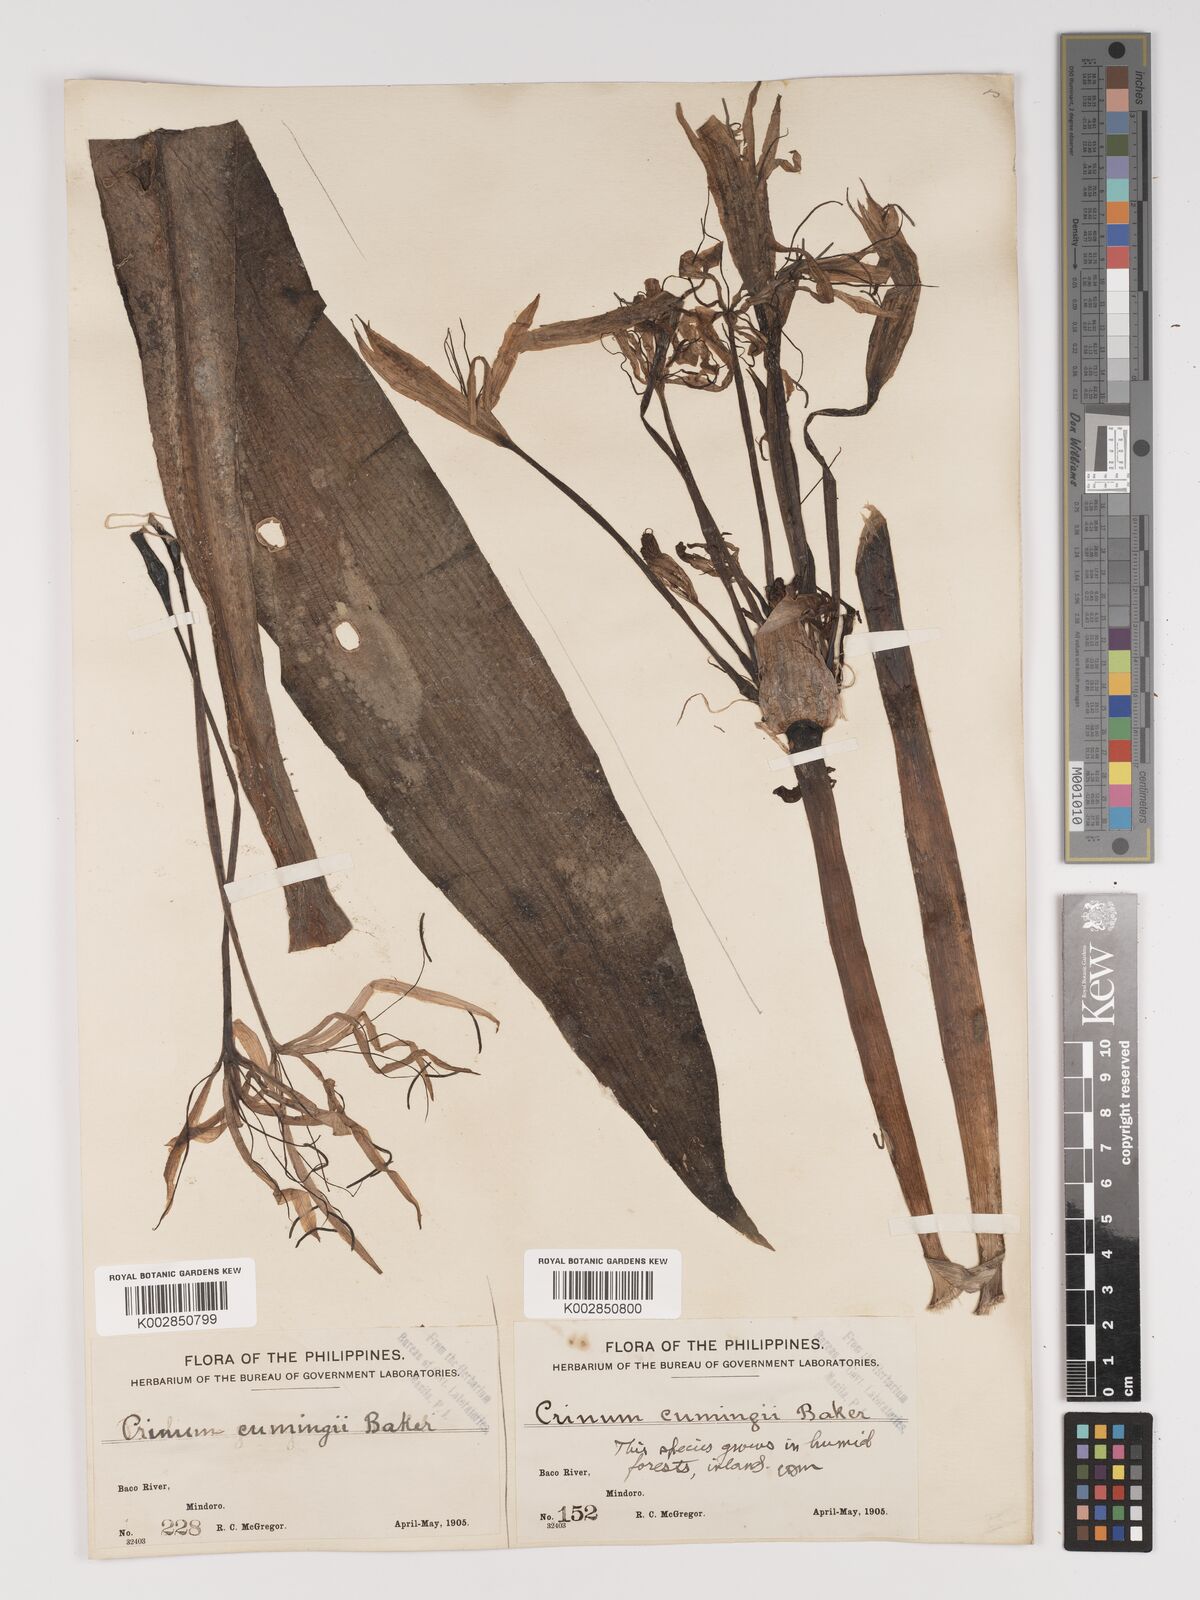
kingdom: Plantae
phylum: Tracheophyta
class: Liliopsida
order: Asparagales
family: Amaryllidaceae
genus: Crinum
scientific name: Crinum
